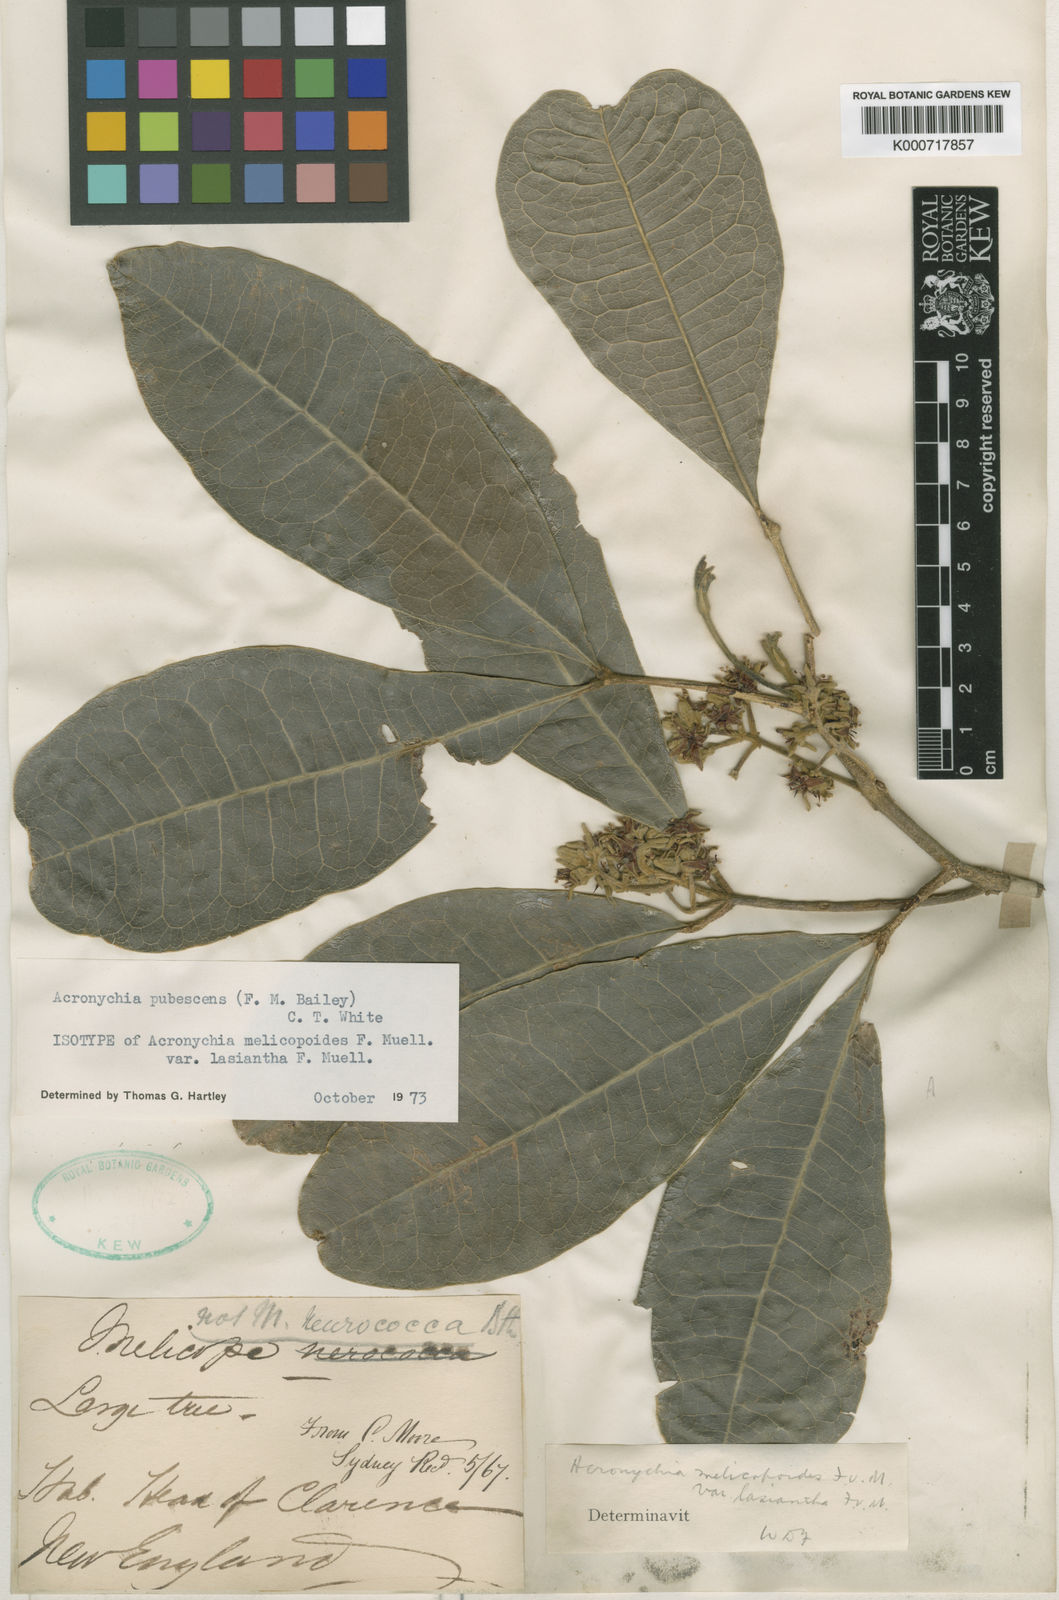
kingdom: Plantae
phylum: Tracheophyta
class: Magnoliopsida
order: Sapindales
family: Rutaceae
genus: Acronychia
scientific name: Acronychia pubescens
